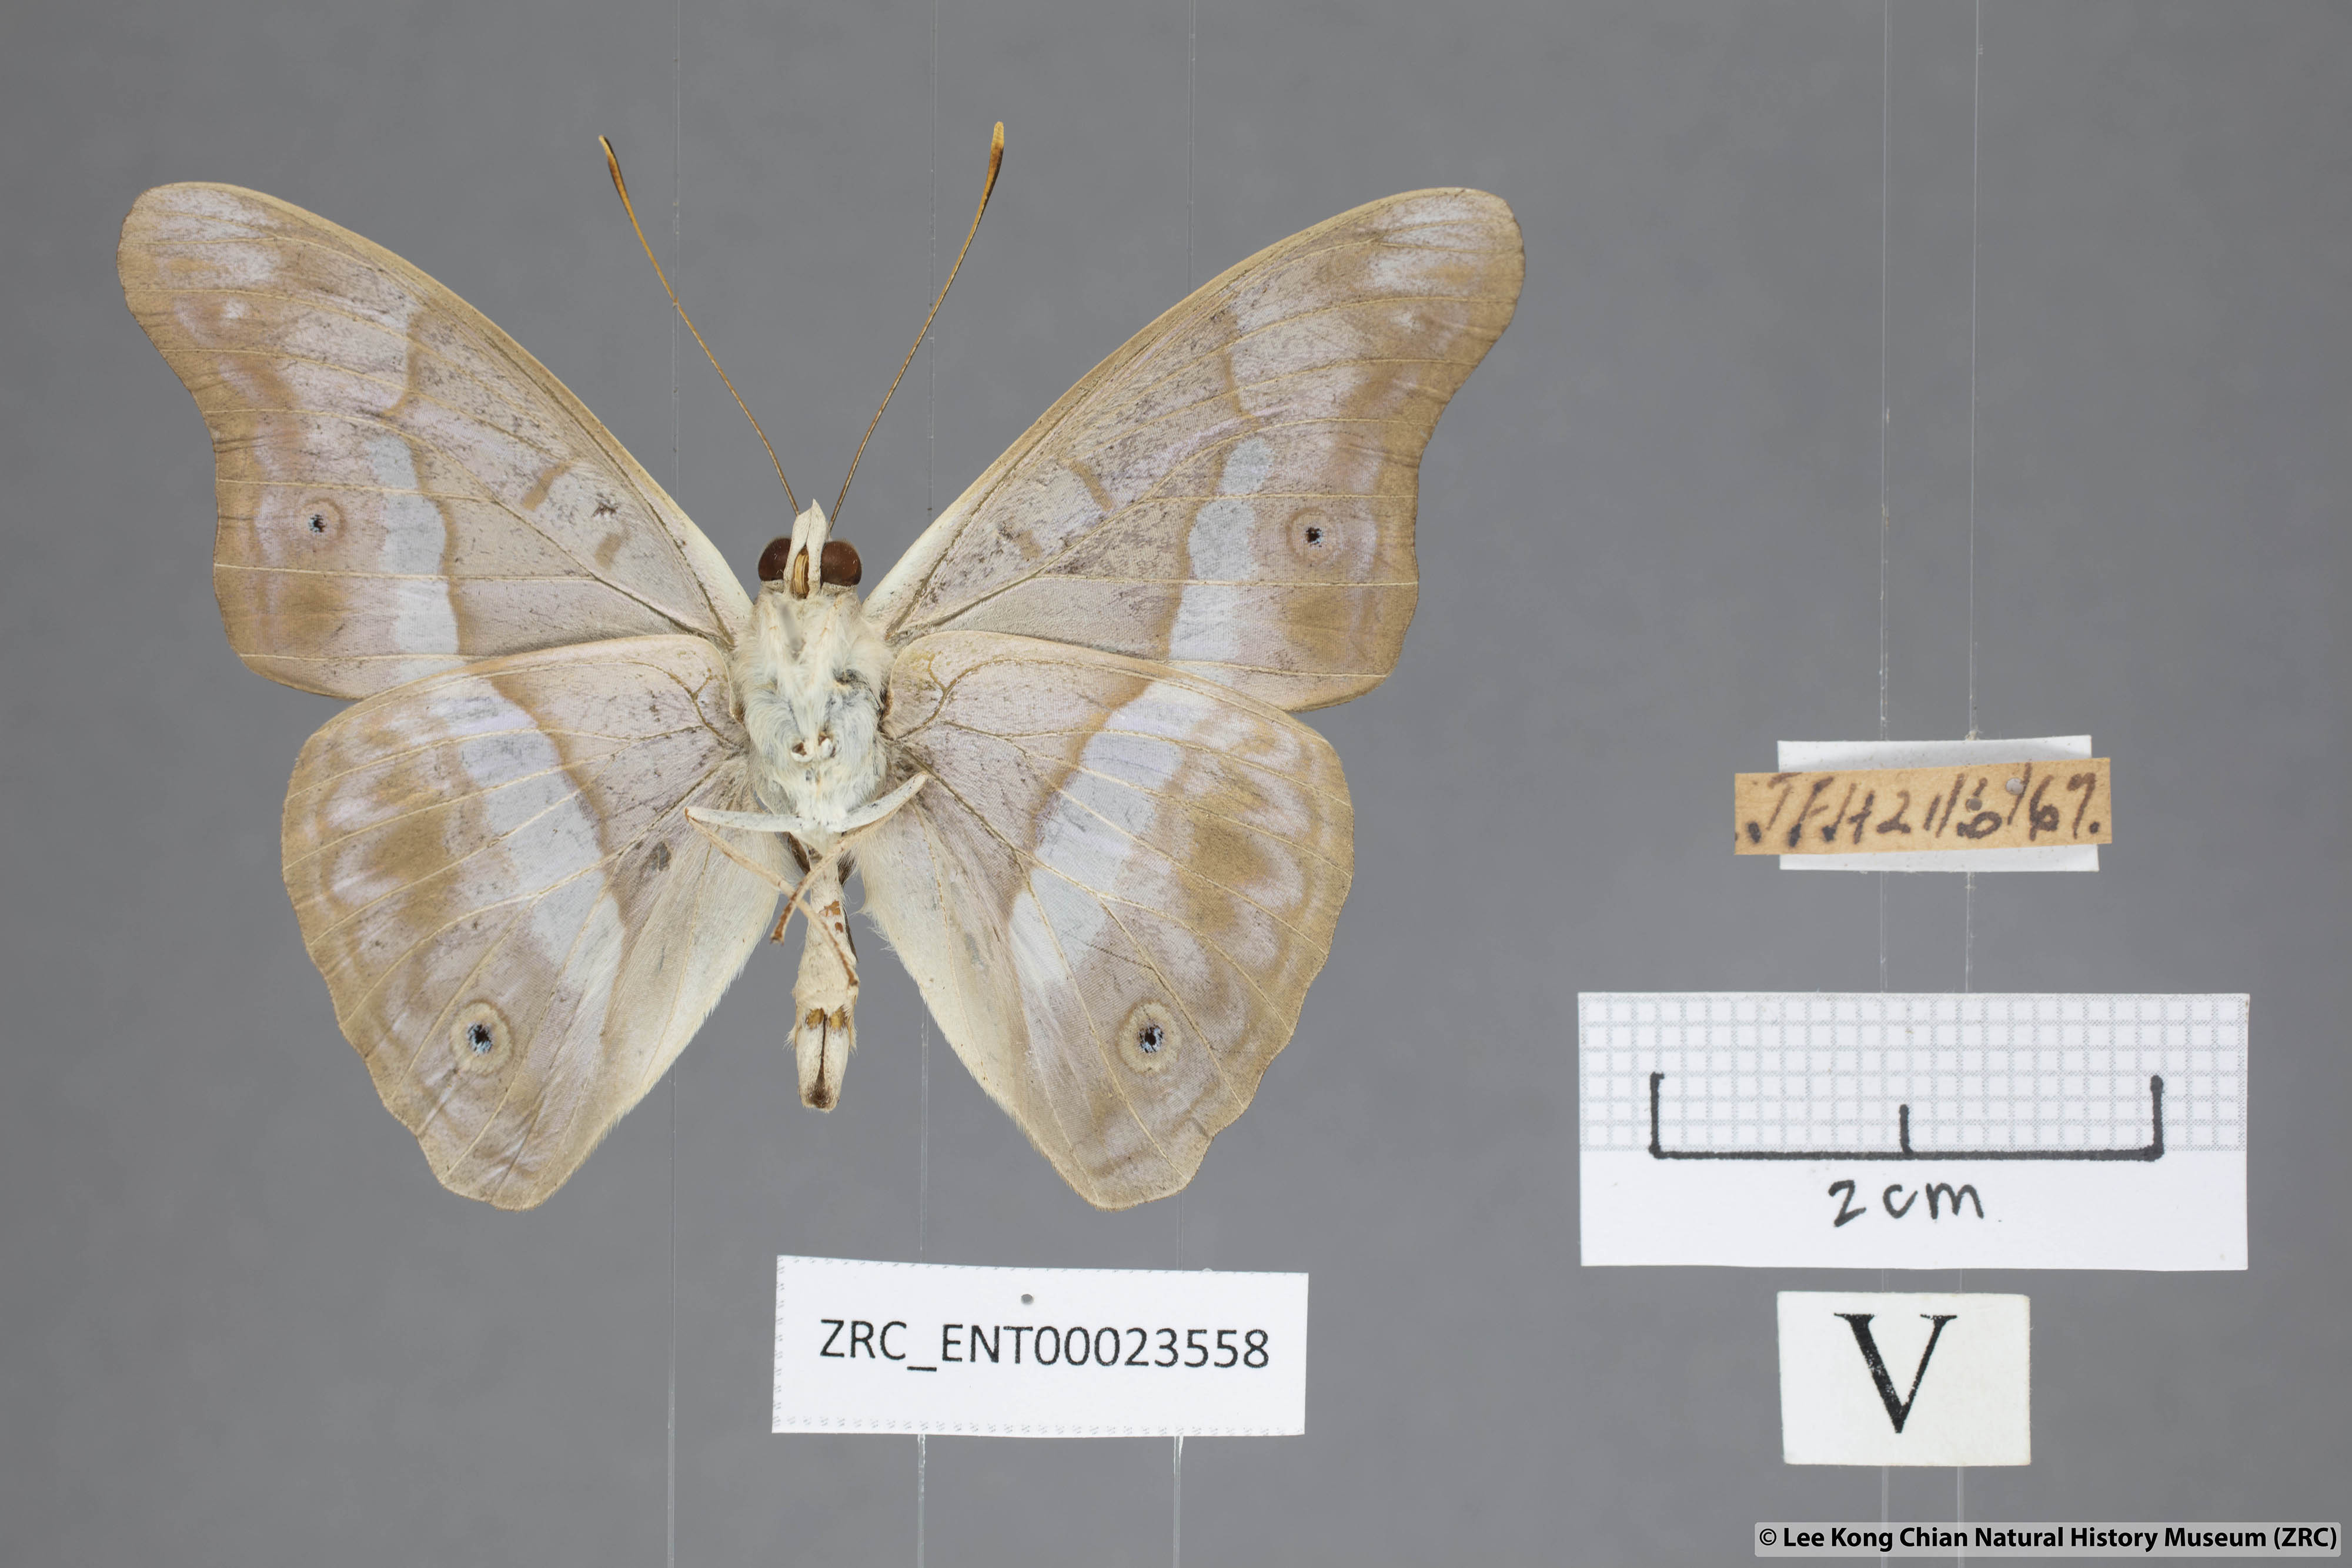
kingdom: Animalia
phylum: Arthropoda
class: Insecta
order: Lepidoptera
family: Nymphalidae
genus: Eulaceura
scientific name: Eulaceura osteria
